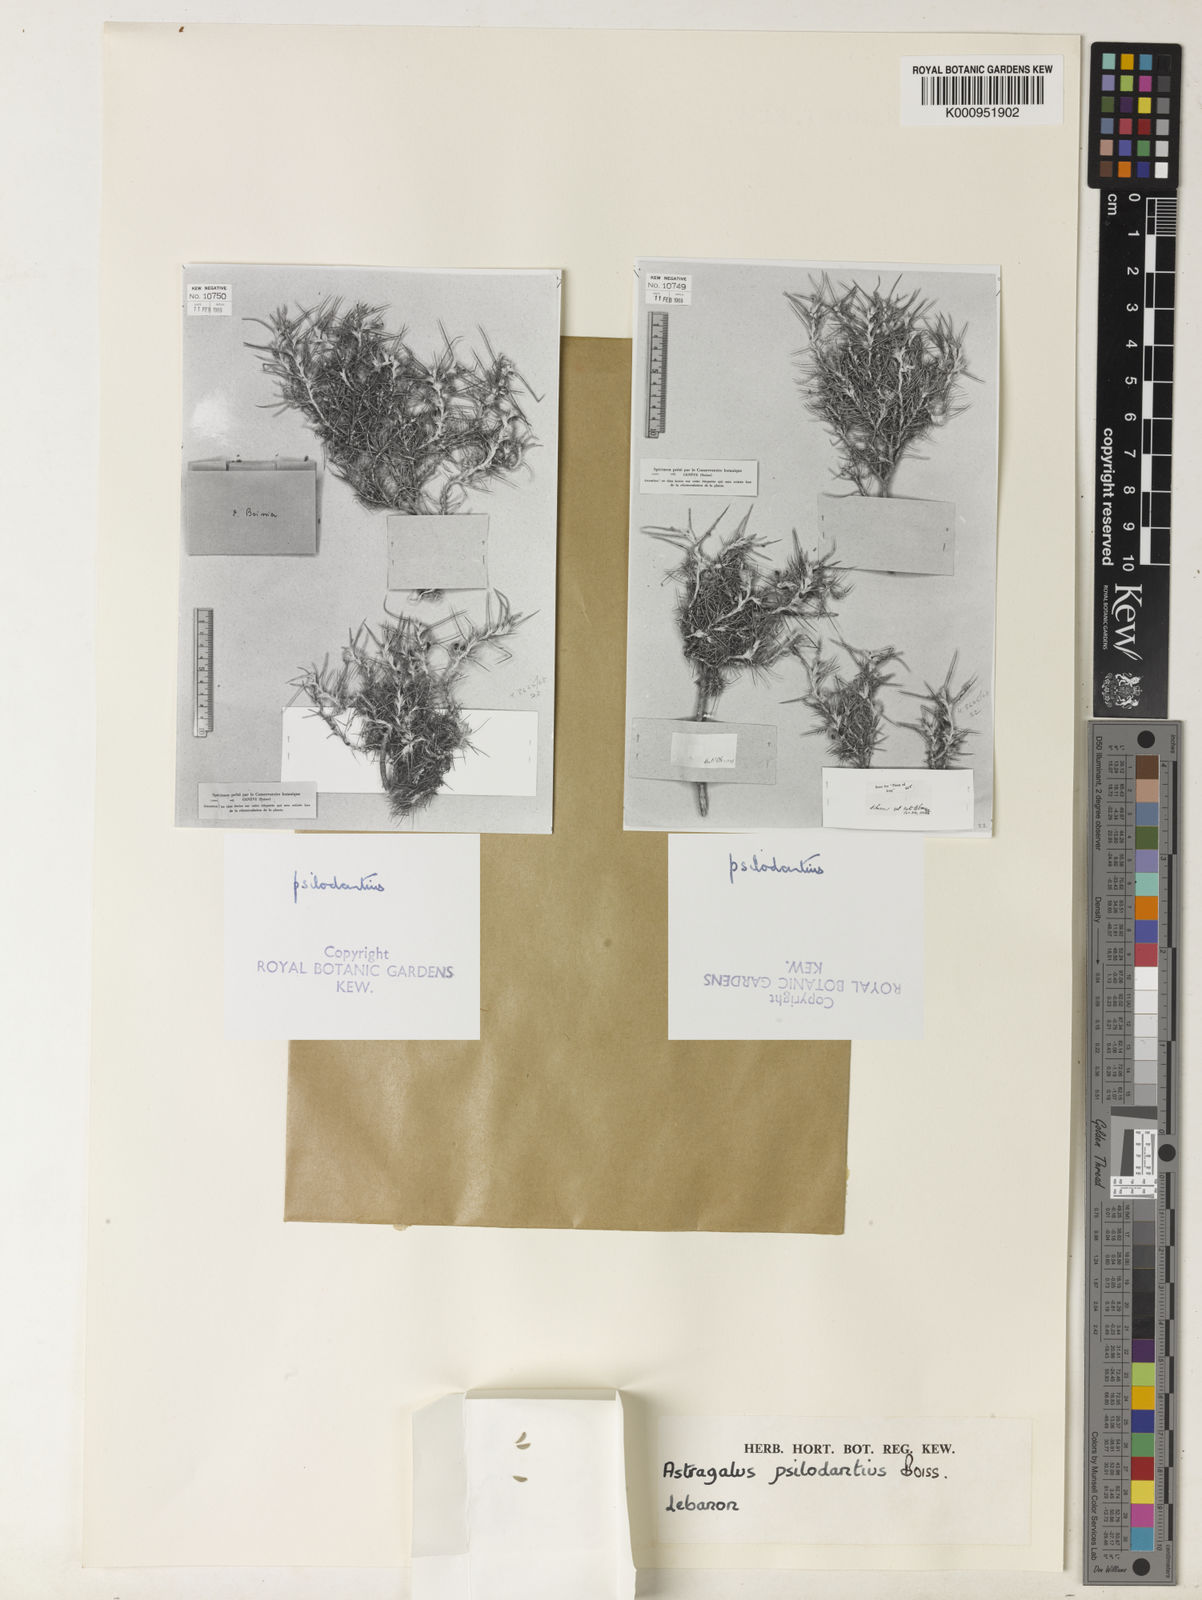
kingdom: Plantae
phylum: Tracheophyta
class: Magnoliopsida
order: Fabales
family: Fabaceae
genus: Astragalus
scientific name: Astragalus psilodontius
